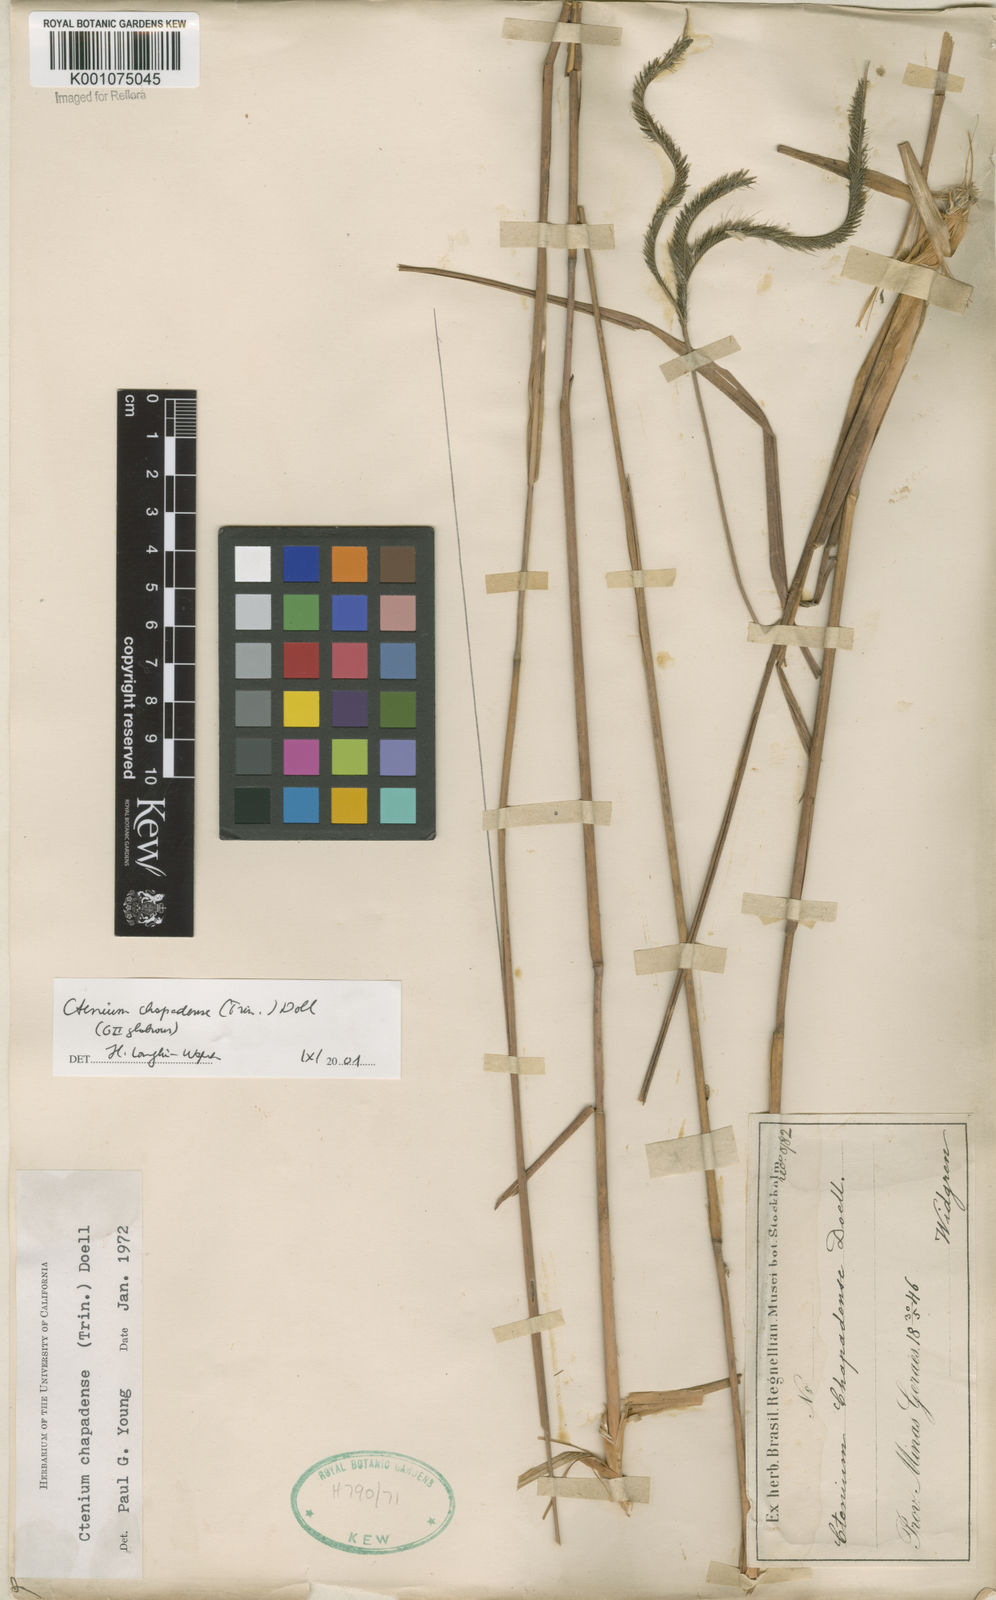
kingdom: Plantae
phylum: Tracheophyta
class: Liliopsida
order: Poales
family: Poaceae
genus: Ctenium
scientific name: Ctenium
